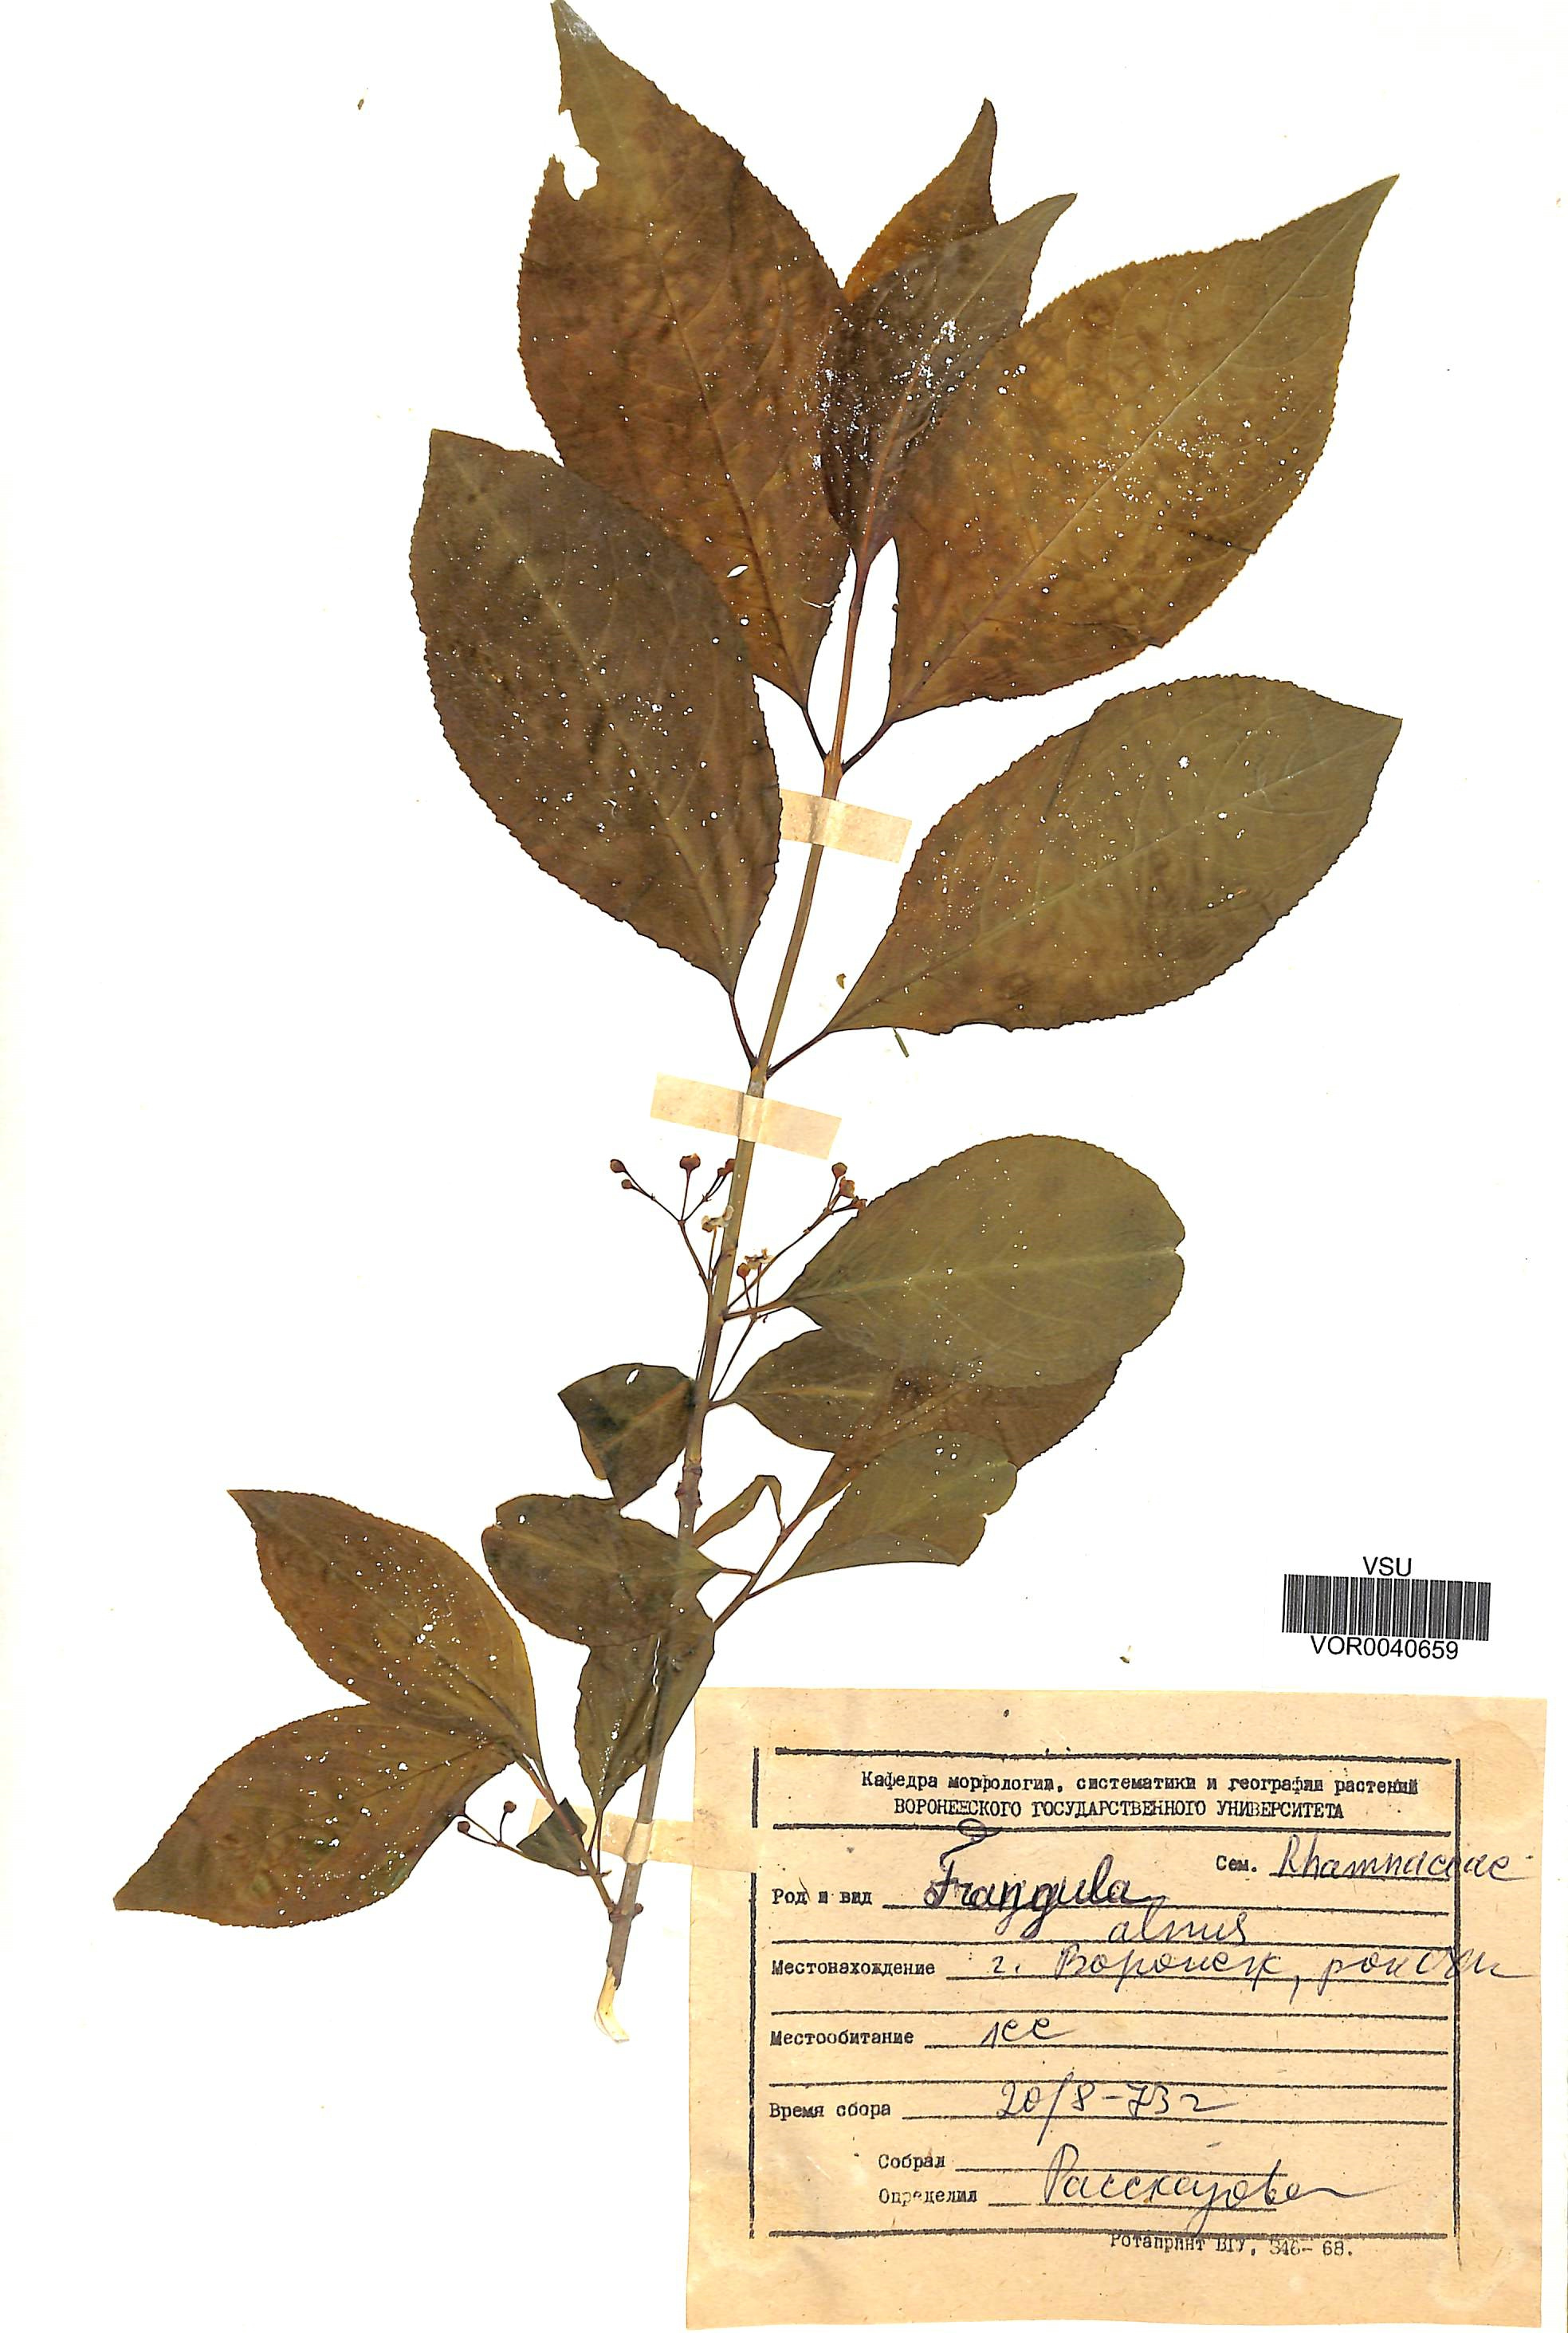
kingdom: Plantae
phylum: Tracheophyta
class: Magnoliopsida
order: Rosales
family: Rhamnaceae
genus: Frangula
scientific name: Frangula alnus
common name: Alder buckthorn
